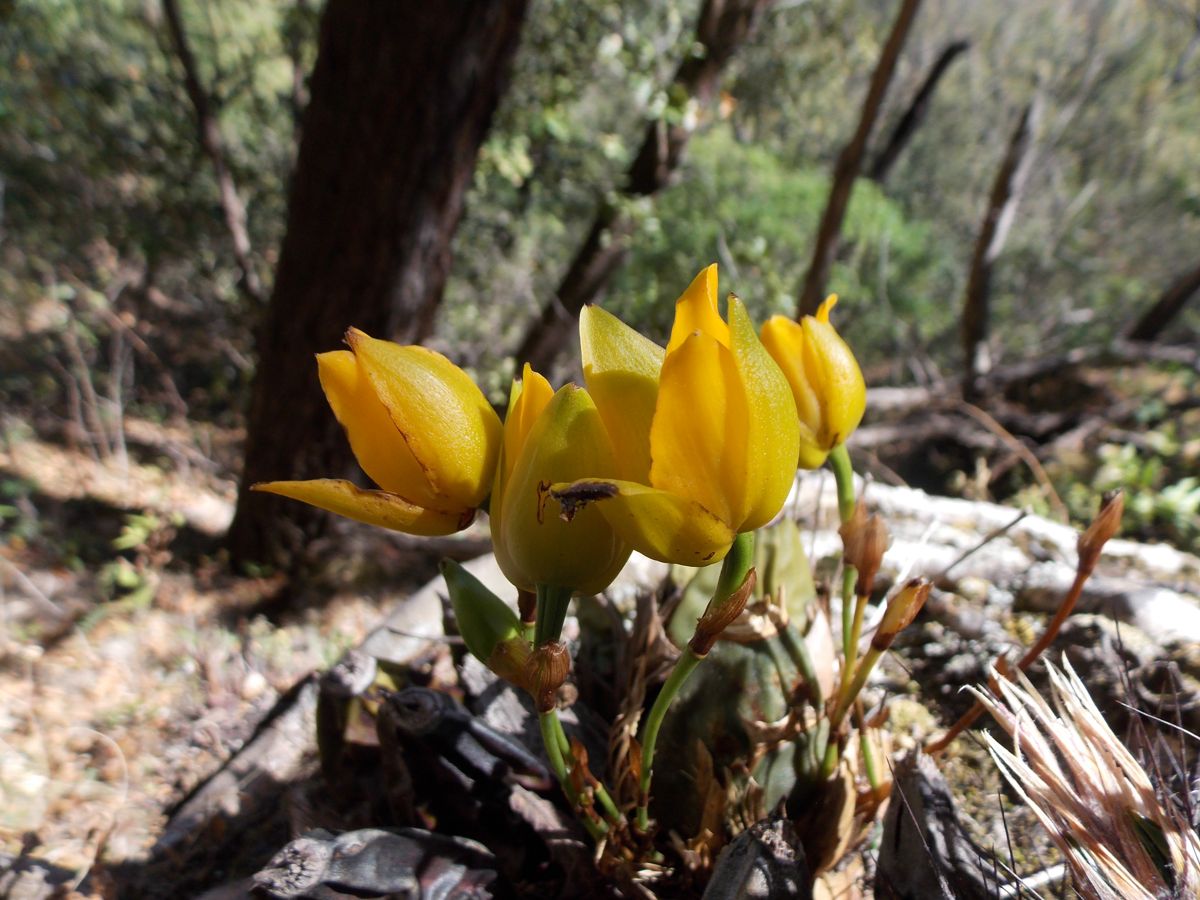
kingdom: Plantae
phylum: Tracheophyta
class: Liliopsida
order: Asparagales
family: Orchidaceae
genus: Lycaste
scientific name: Lycaste cruenta
